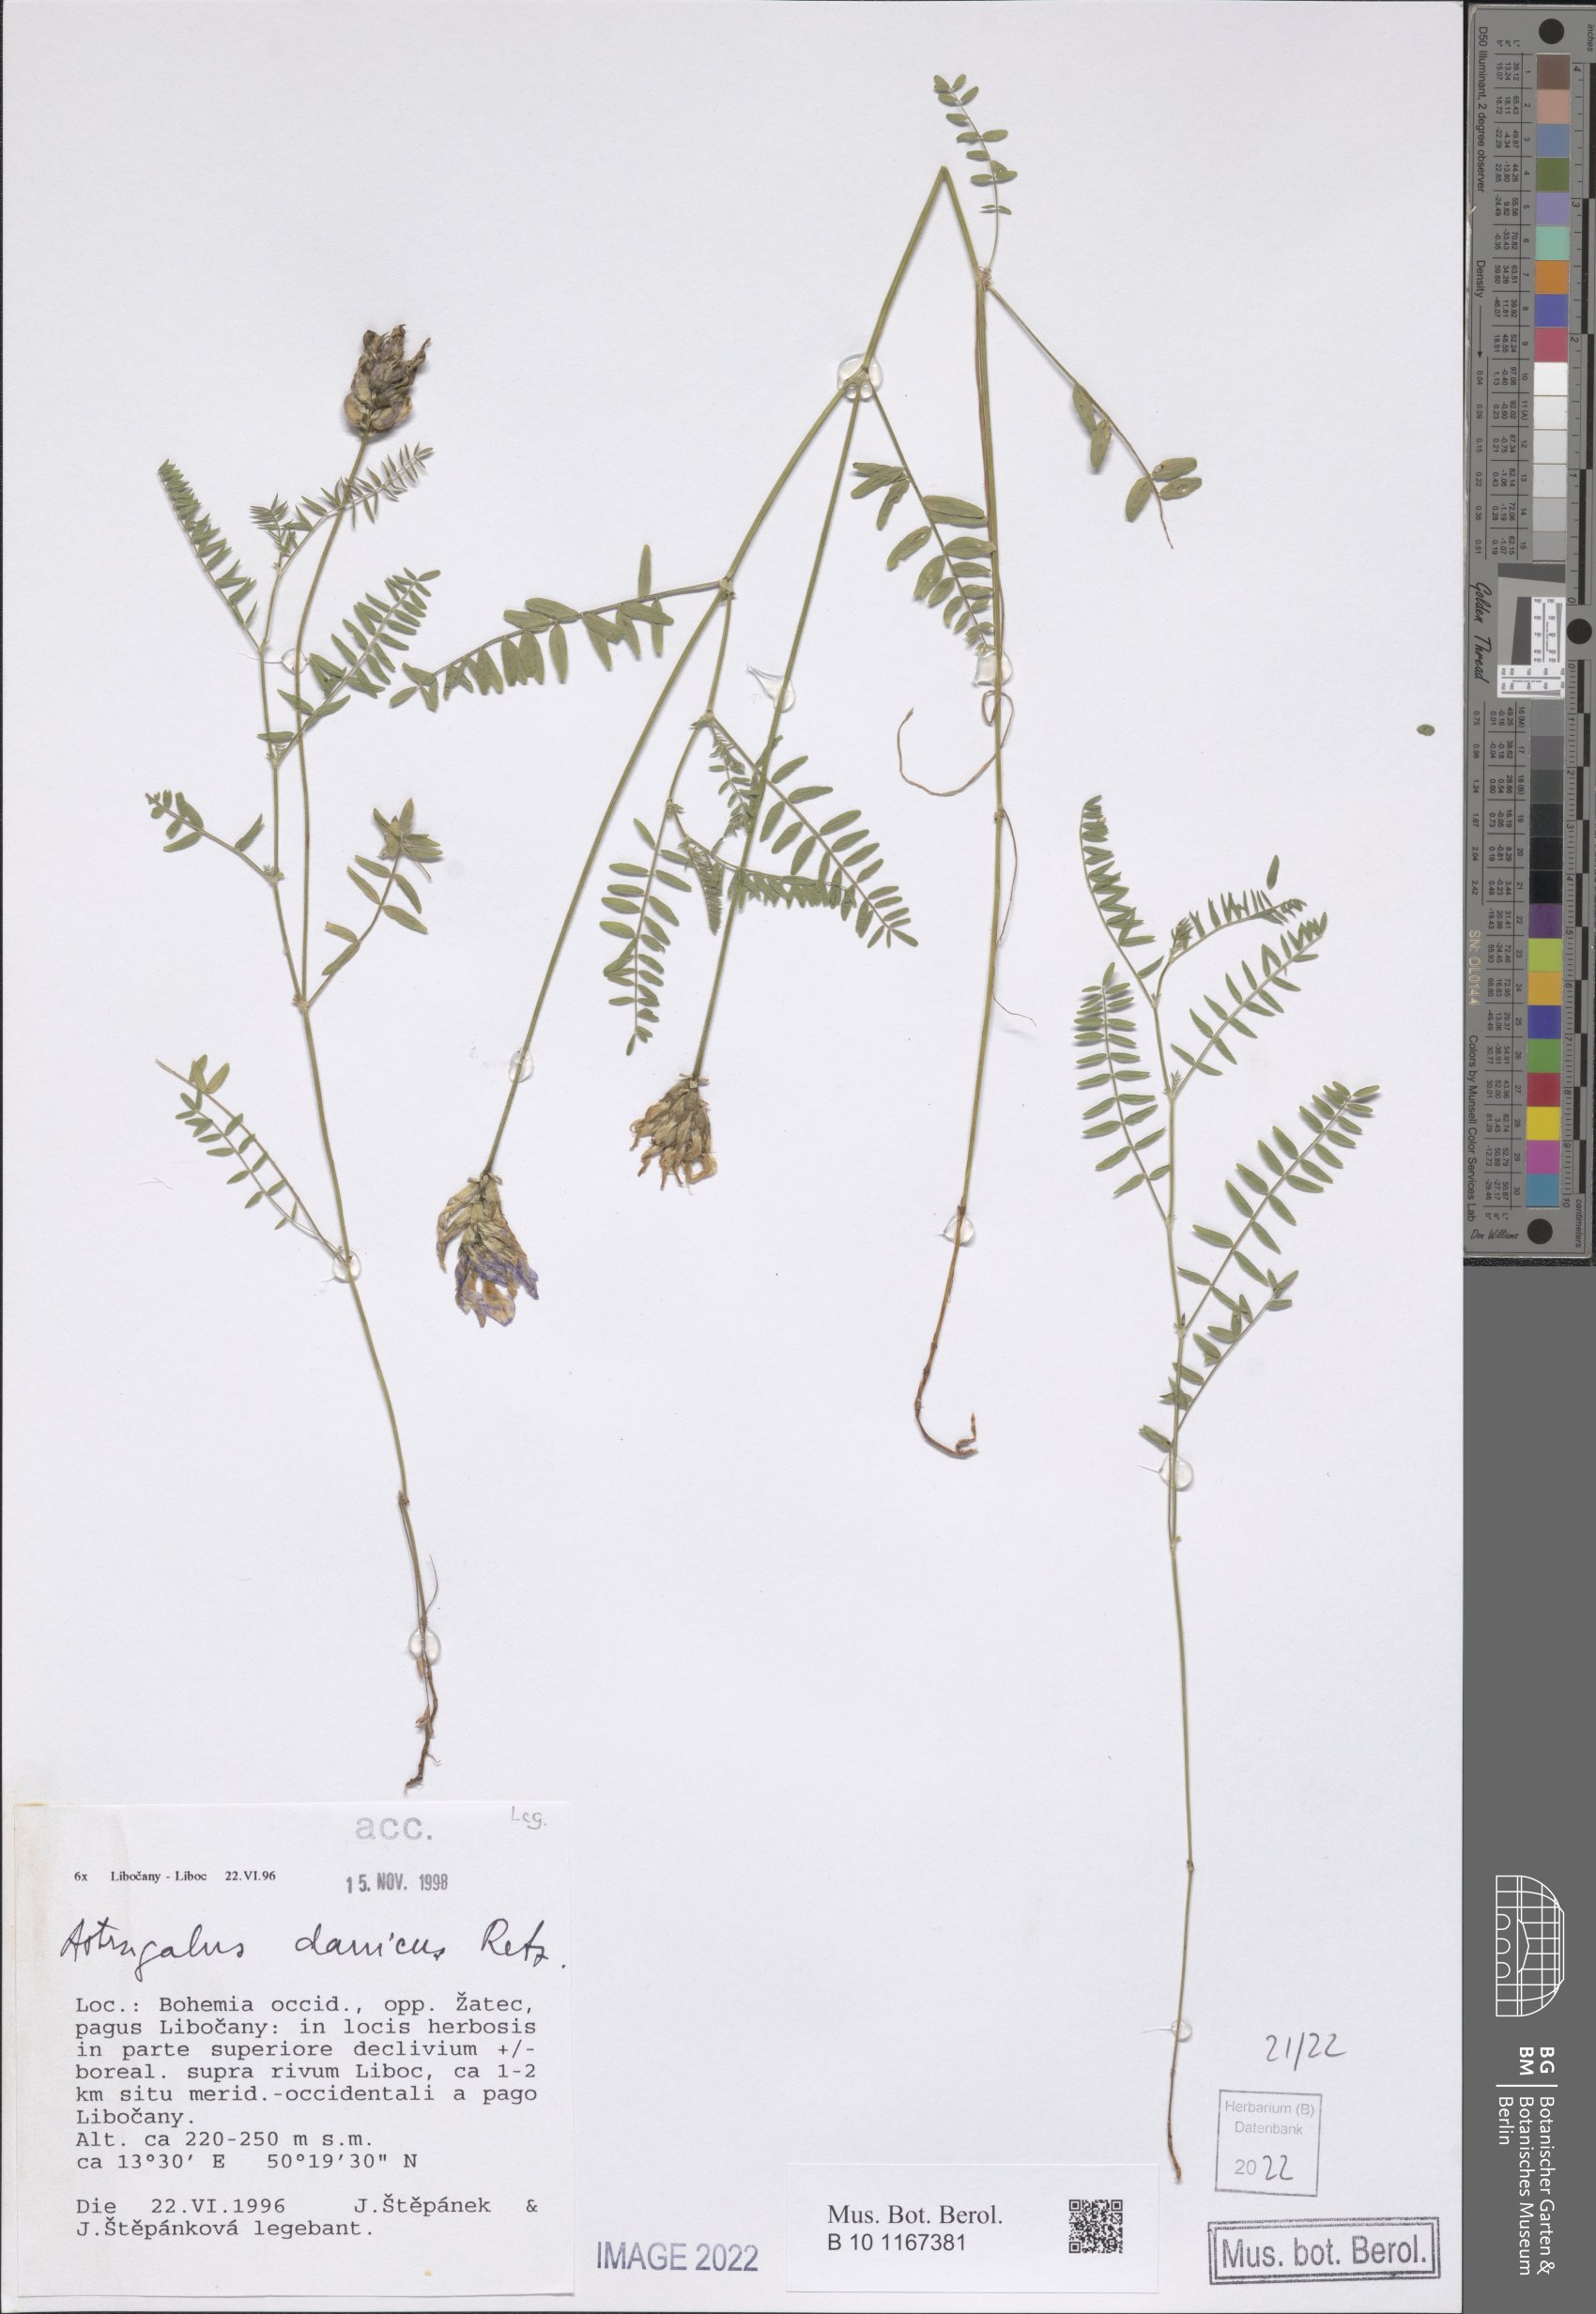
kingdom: Plantae
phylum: Tracheophyta
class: Magnoliopsida
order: Fabales
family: Fabaceae
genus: Astragalus
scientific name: Astragalus danicus
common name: Purple milk-vetch
